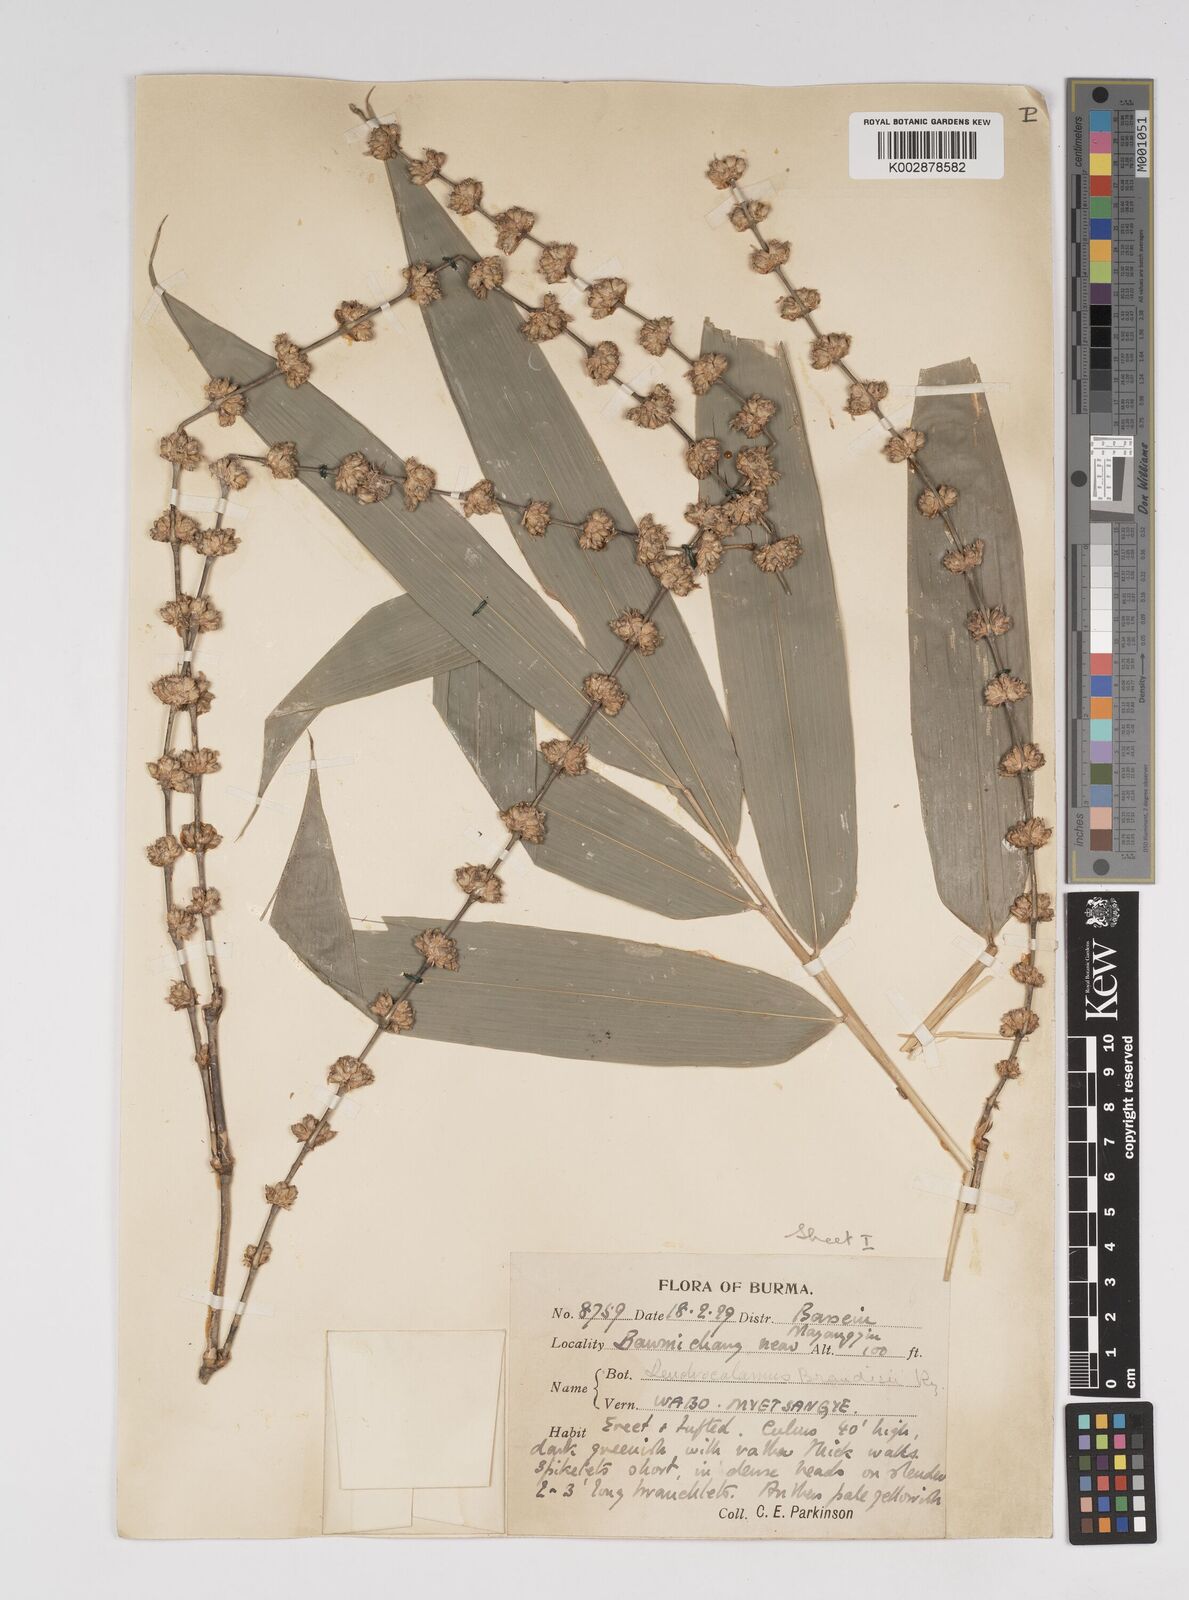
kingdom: Plantae
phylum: Tracheophyta
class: Liliopsida
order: Poales
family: Poaceae
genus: Dendrocalamus
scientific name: Dendrocalamus brandisii
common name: Velvetleaf bamboo
